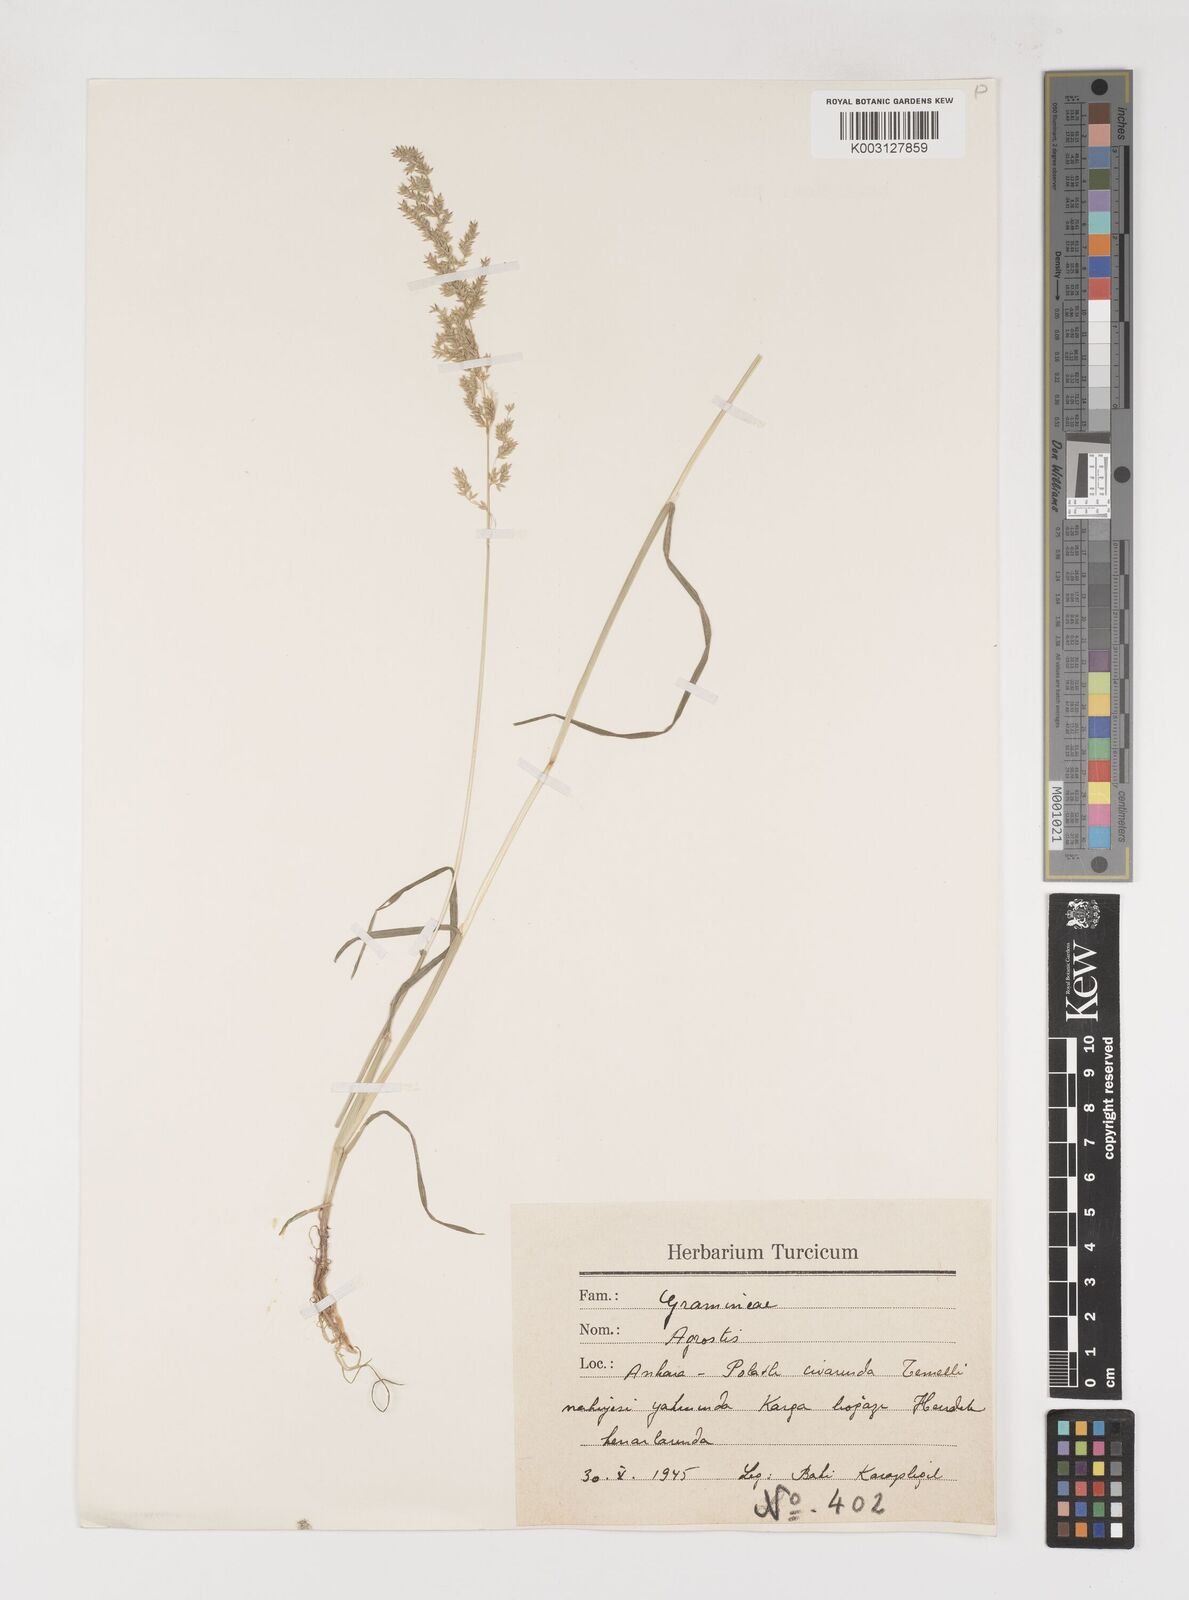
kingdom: Plantae
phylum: Tracheophyta
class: Liliopsida
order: Poales
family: Poaceae
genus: Poa
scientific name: Poa trivialis
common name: Rough bluegrass
